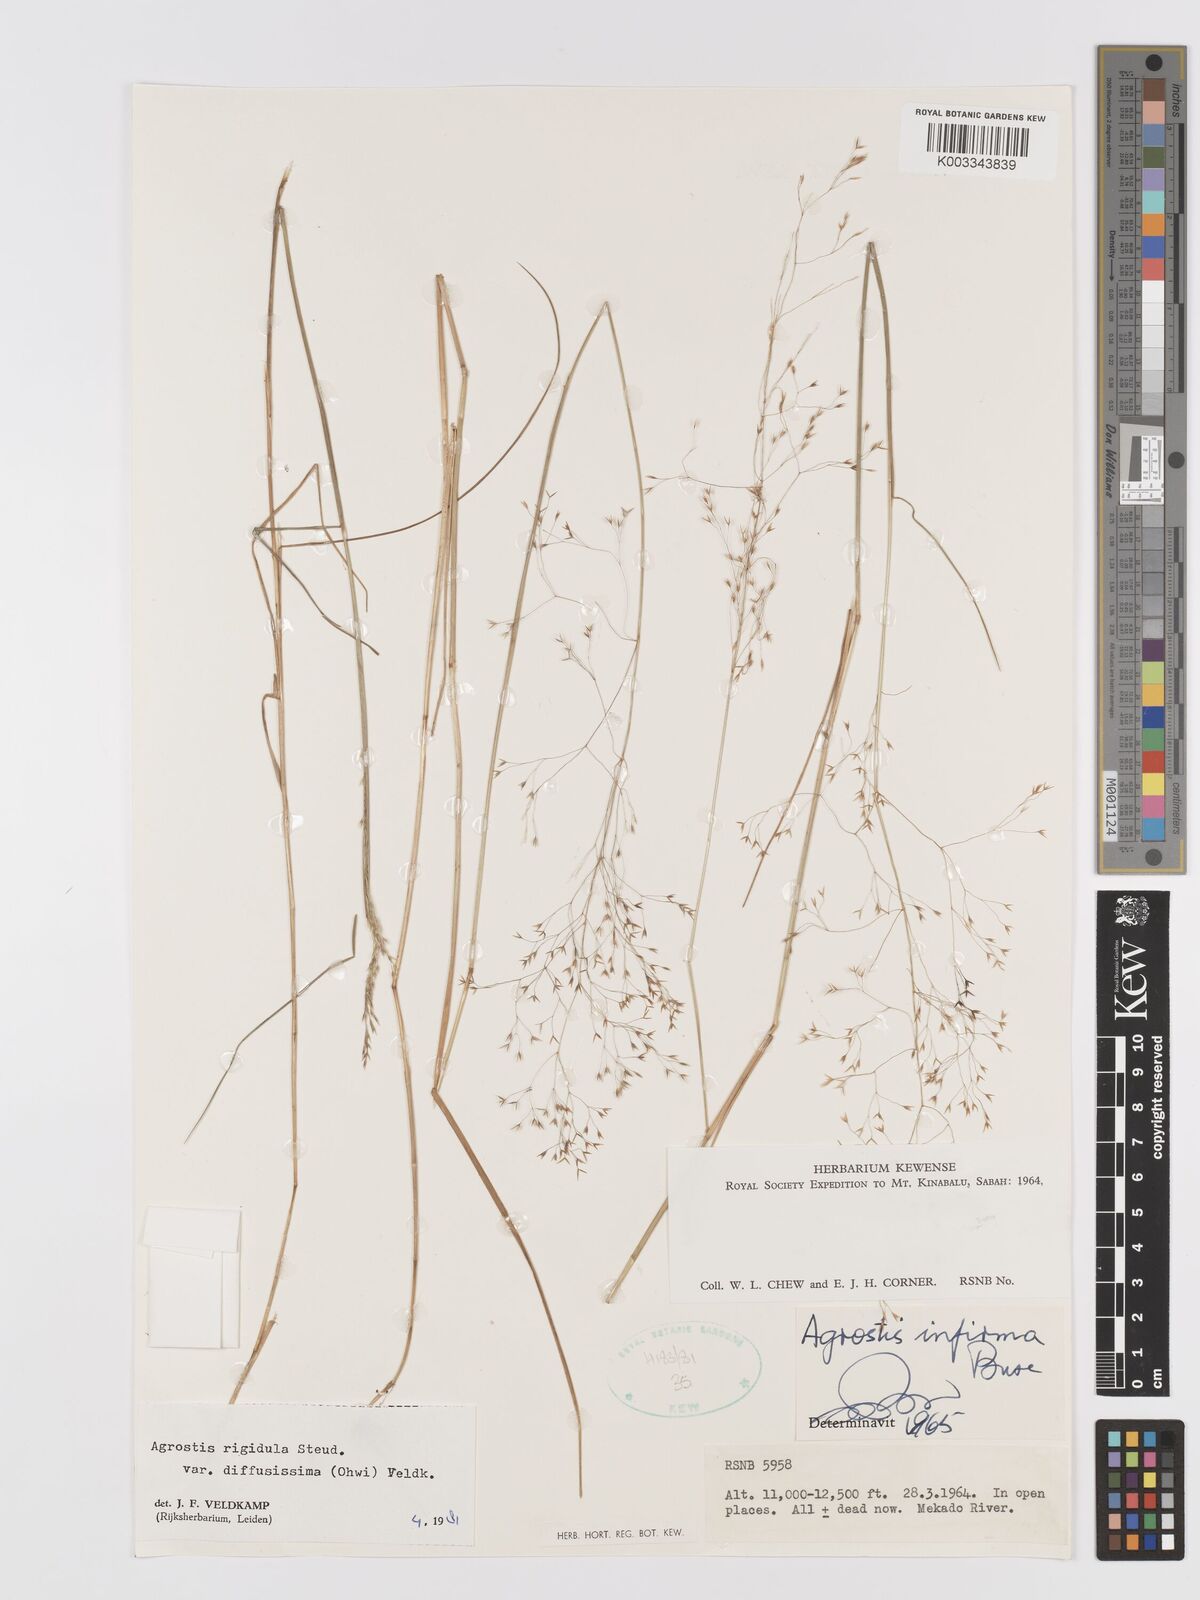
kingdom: Plantae
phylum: Tracheophyta
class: Liliopsida
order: Poales
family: Poaceae
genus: Agrostis
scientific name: Agrostis infirma
